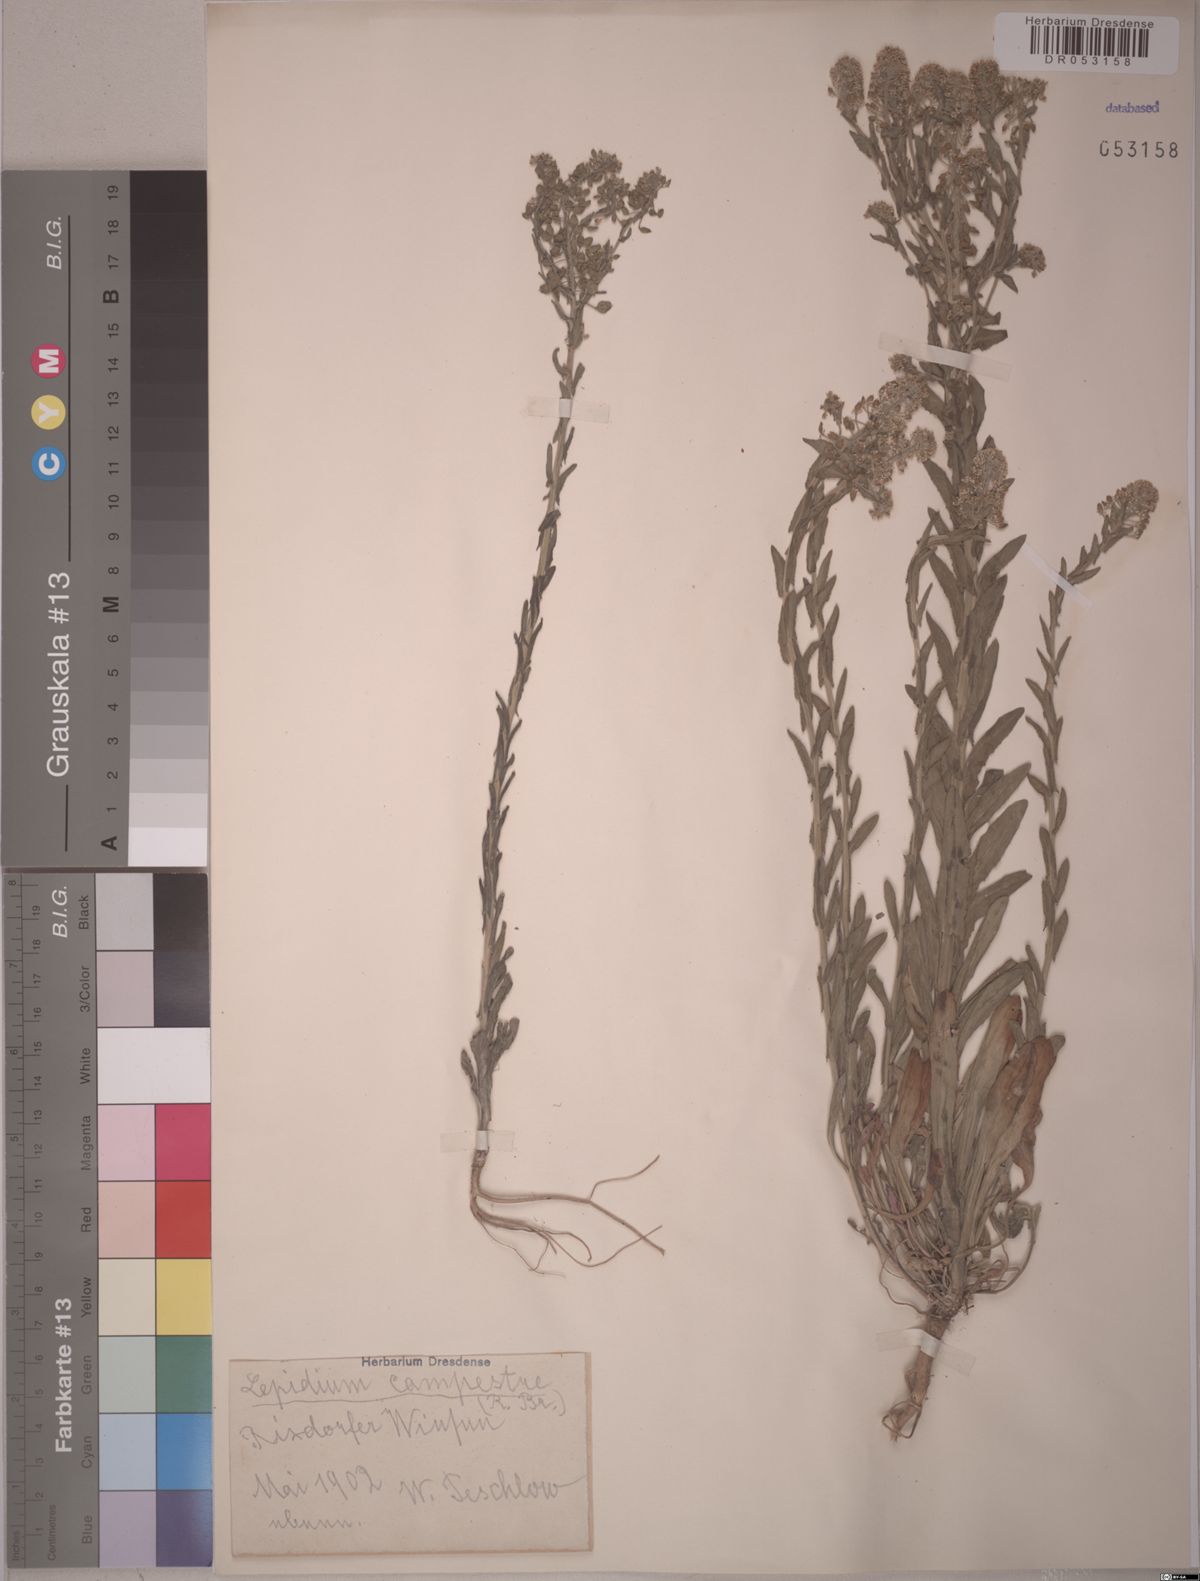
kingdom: Plantae
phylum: Tracheophyta
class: Magnoliopsida
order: Brassicales
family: Brassicaceae
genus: Lepidium
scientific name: Lepidium campestre
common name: Field pepperwort
